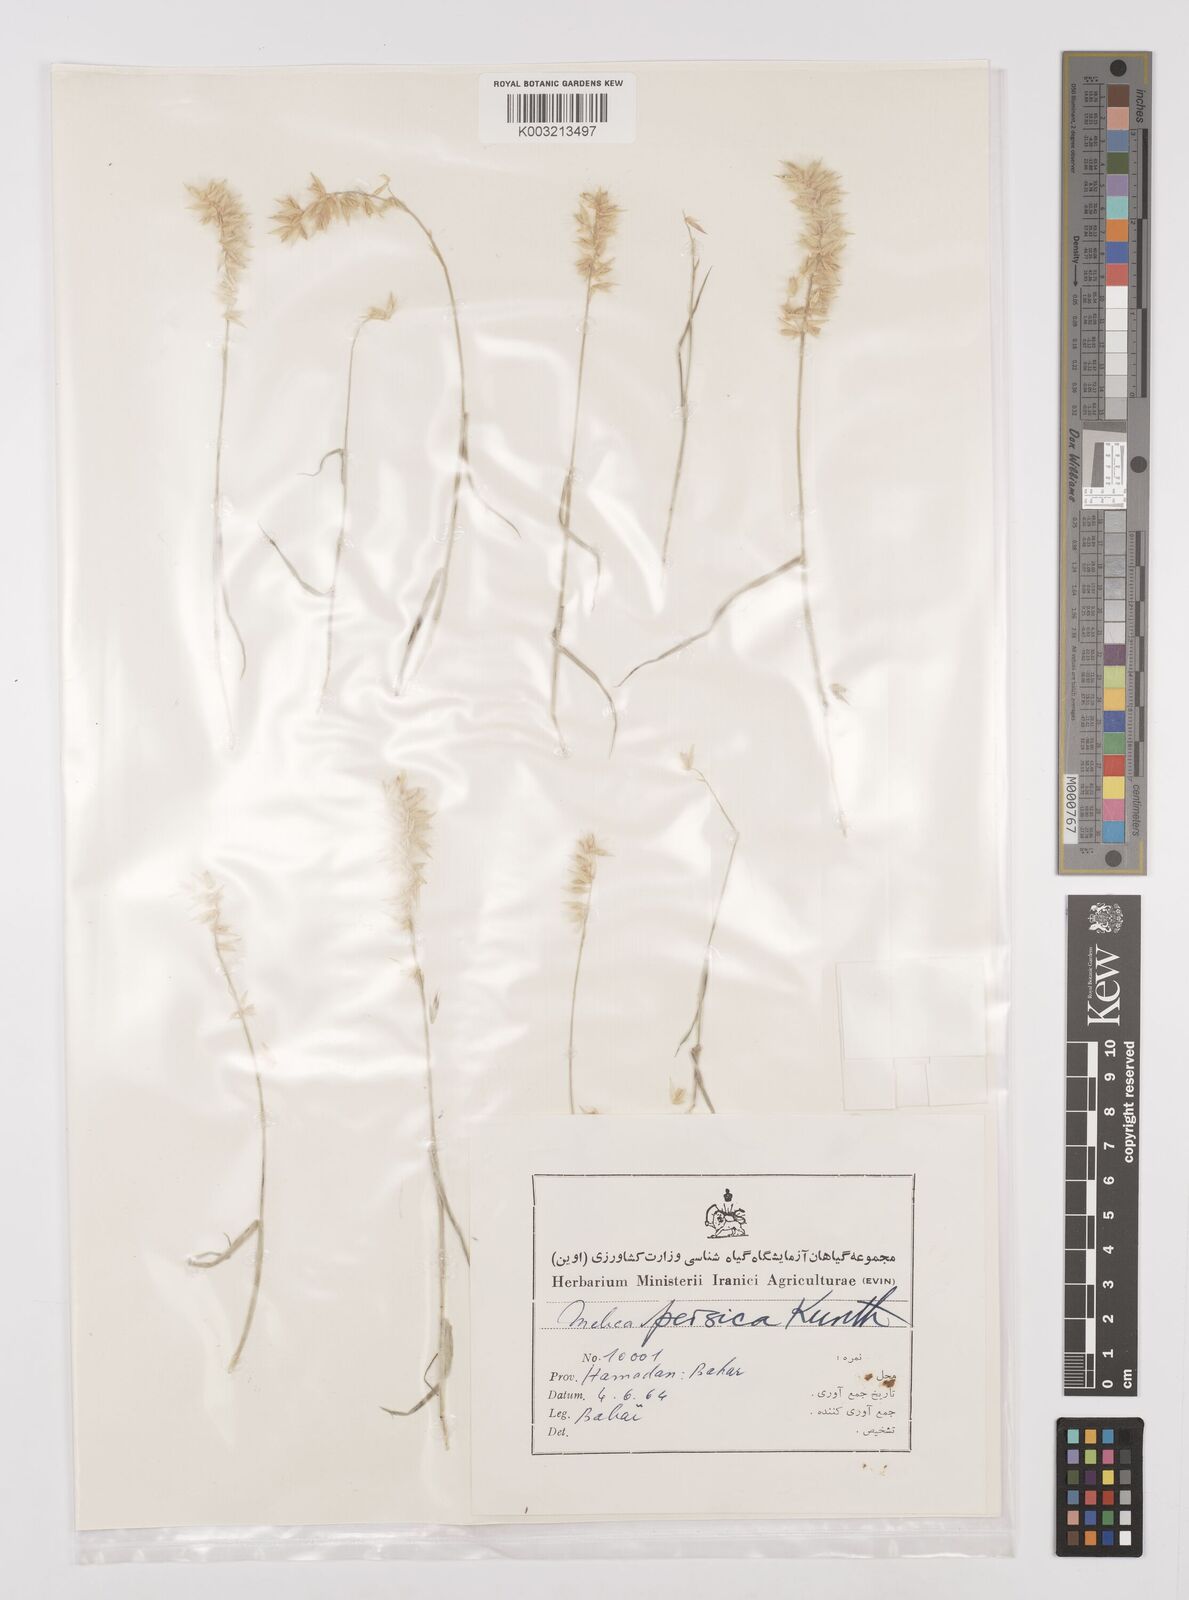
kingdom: Plantae
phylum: Tracheophyta
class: Liliopsida
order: Poales
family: Poaceae
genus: Melica
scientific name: Melica persica
